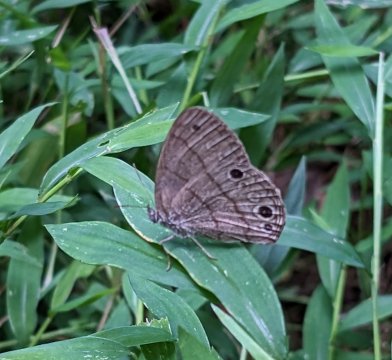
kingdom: Animalia
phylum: Arthropoda
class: Insecta
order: Lepidoptera
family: Nymphalidae
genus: Hermeuptychia
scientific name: Hermeuptychia intricata
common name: Intricate Satyr
